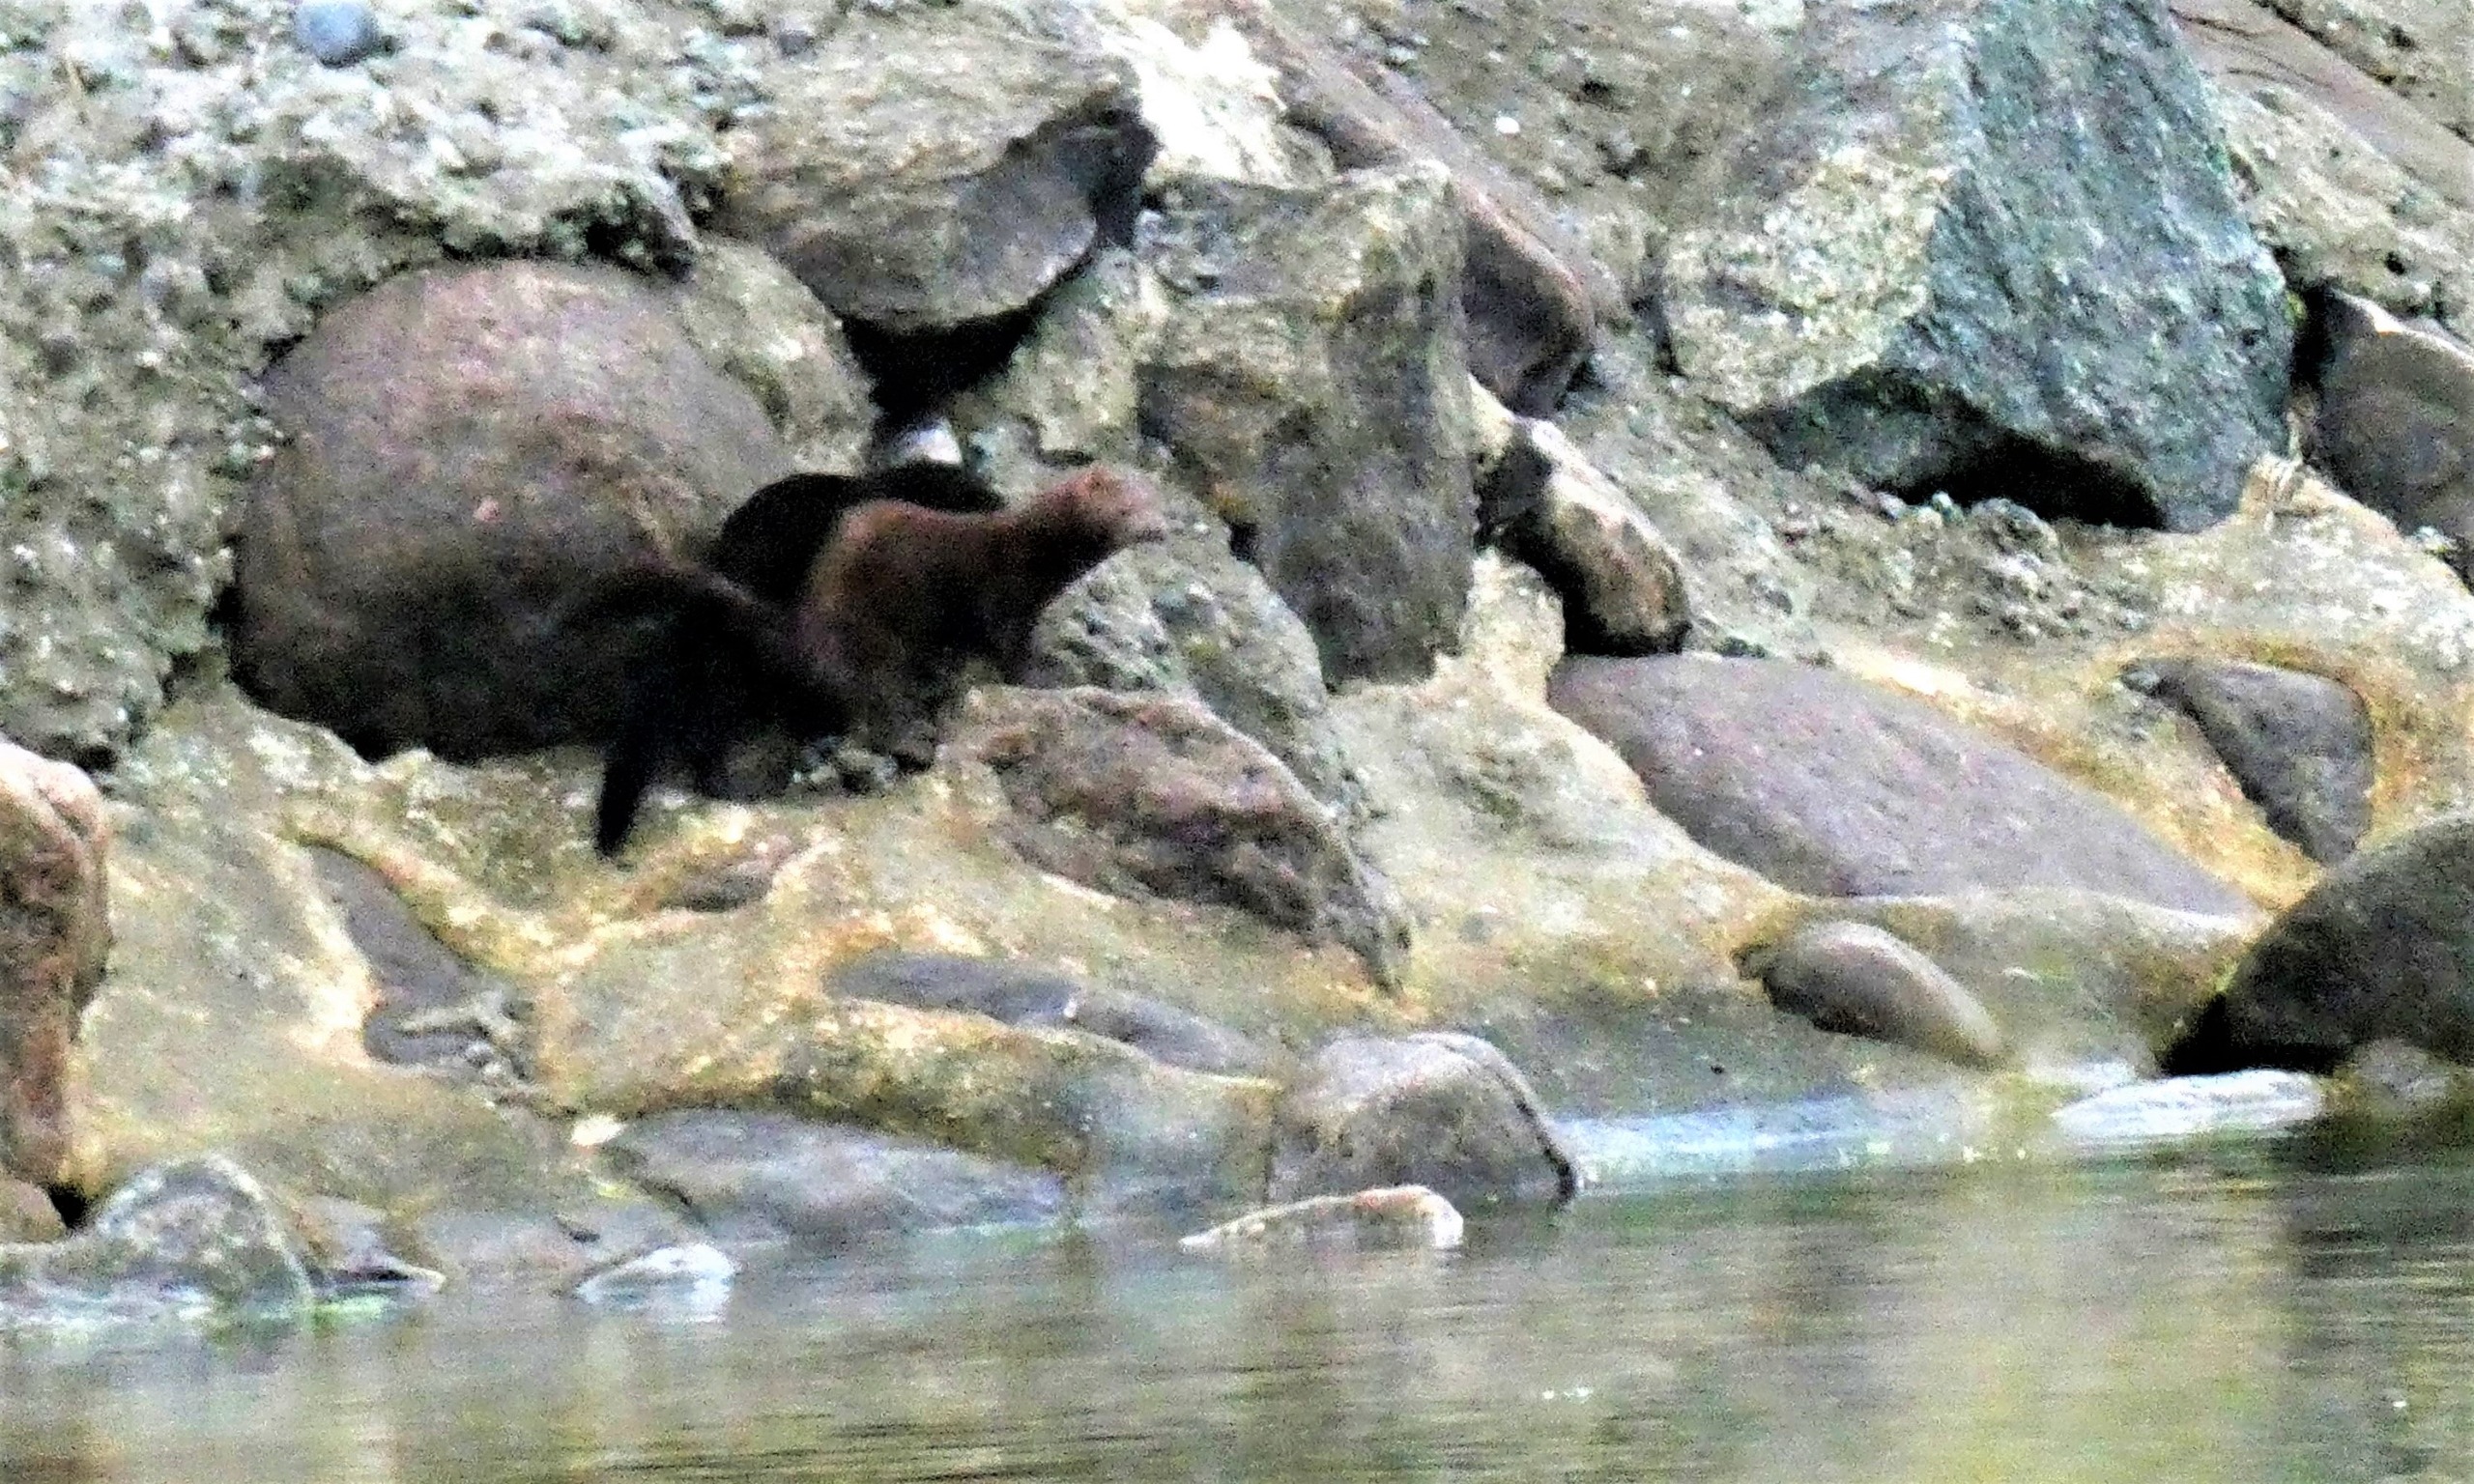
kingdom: Animalia
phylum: Chordata
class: Mammalia
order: Carnivora
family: Mustelidae
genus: Mustela
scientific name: Mustela vison
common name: Mink
